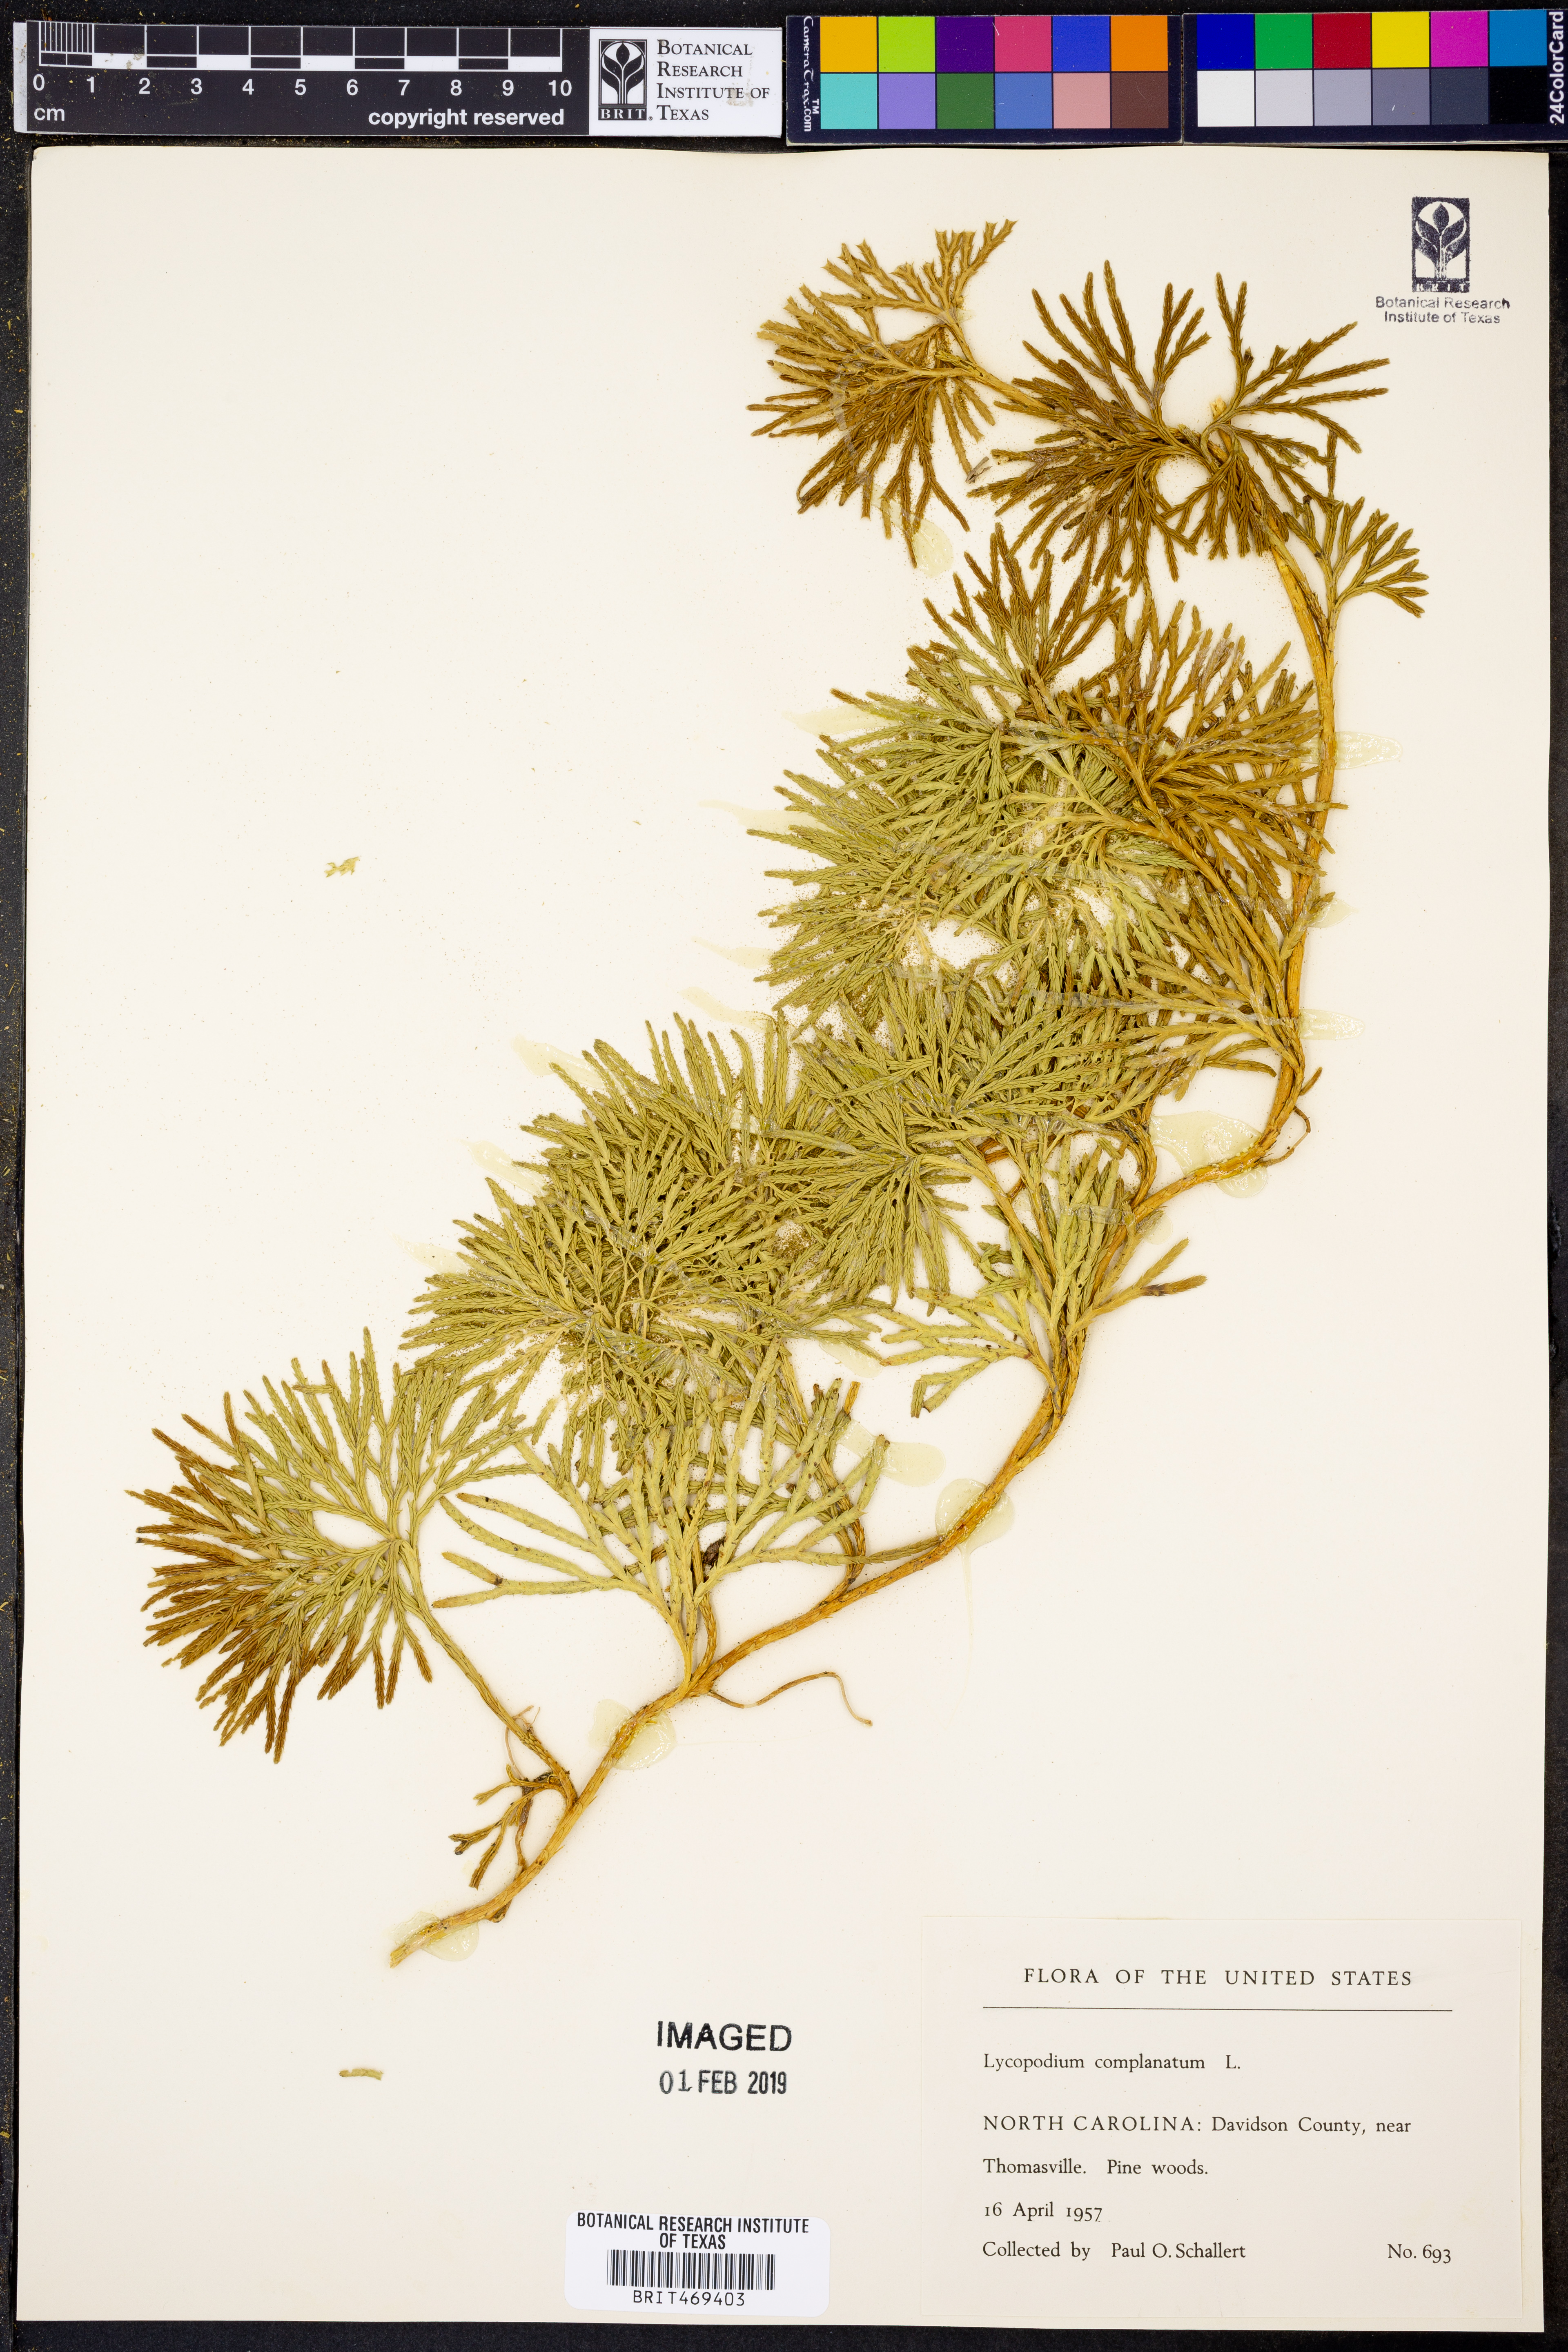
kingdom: Plantae
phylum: Tracheophyta
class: Lycopodiopsida
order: Lycopodiales
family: Lycopodiaceae
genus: Diphasiastrum
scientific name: Diphasiastrum complanatum
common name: Northern running-pine
